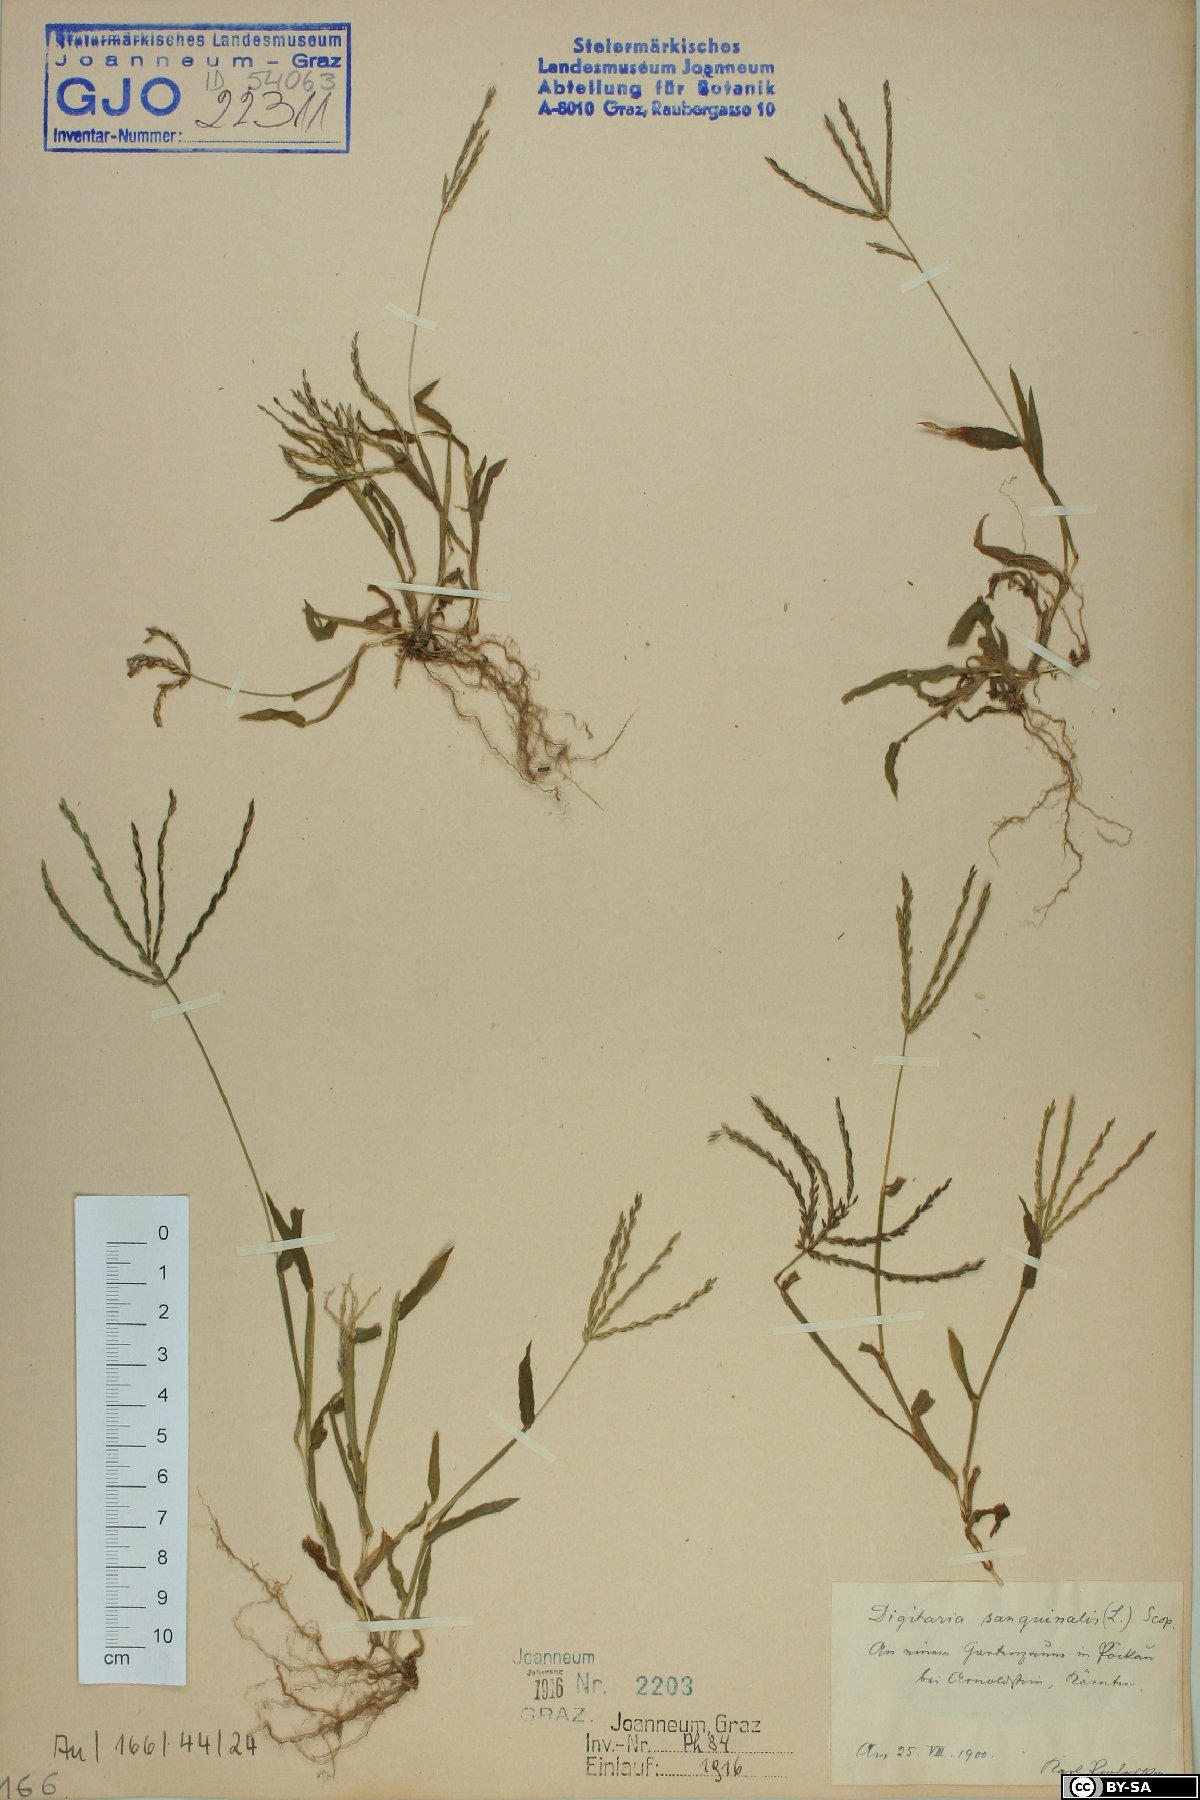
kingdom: Plantae
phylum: Tracheophyta
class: Liliopsida
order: Poales
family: Poaceae
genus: Digitaria
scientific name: Digitaria sanguinalis
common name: Hairy crabgrass
